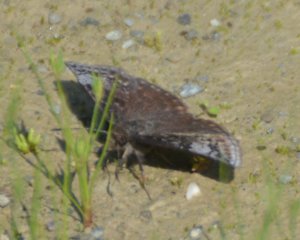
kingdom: Animalia
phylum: Arthropoda
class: Insecta
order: Lepidoptera
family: Hesperiidae
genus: Erynnis
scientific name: Erynnis icelus
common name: Dreamy Duskywing
